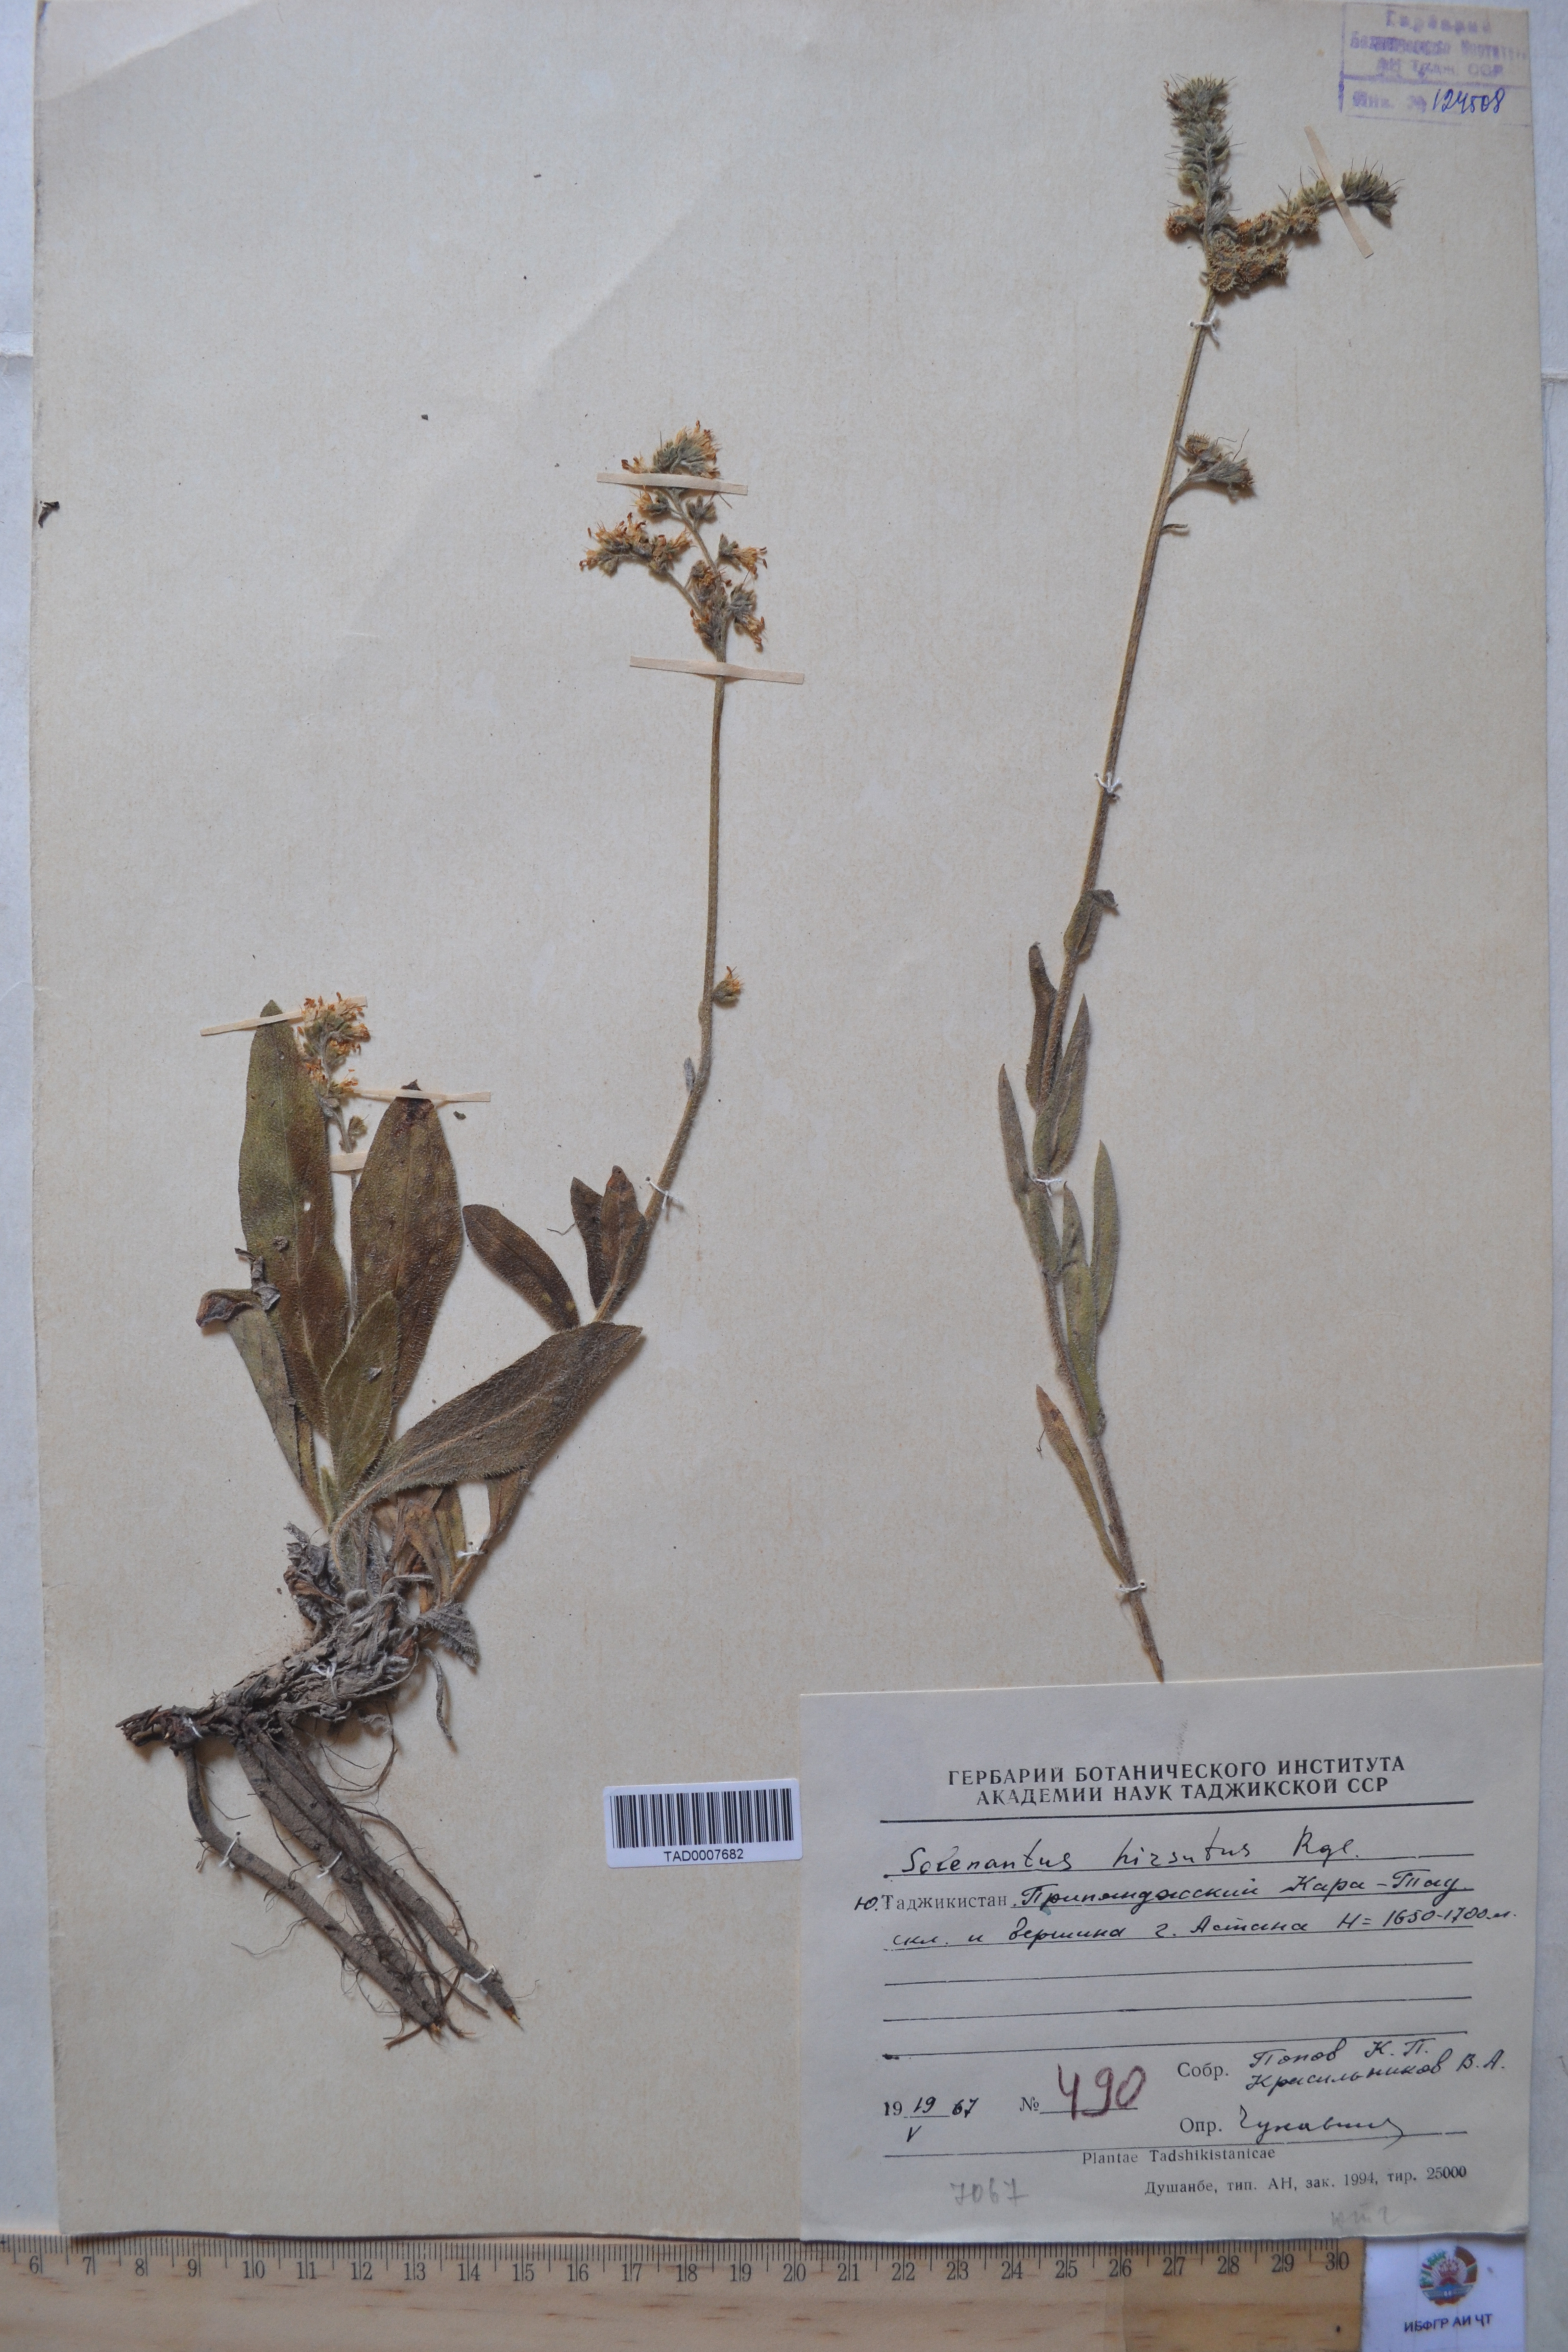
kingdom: Plantae
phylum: Tracheophyta
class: Magnoliopsida
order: Boraginales
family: Boraginaceae
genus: Solenanthus
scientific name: Solenanthus hirsutus
